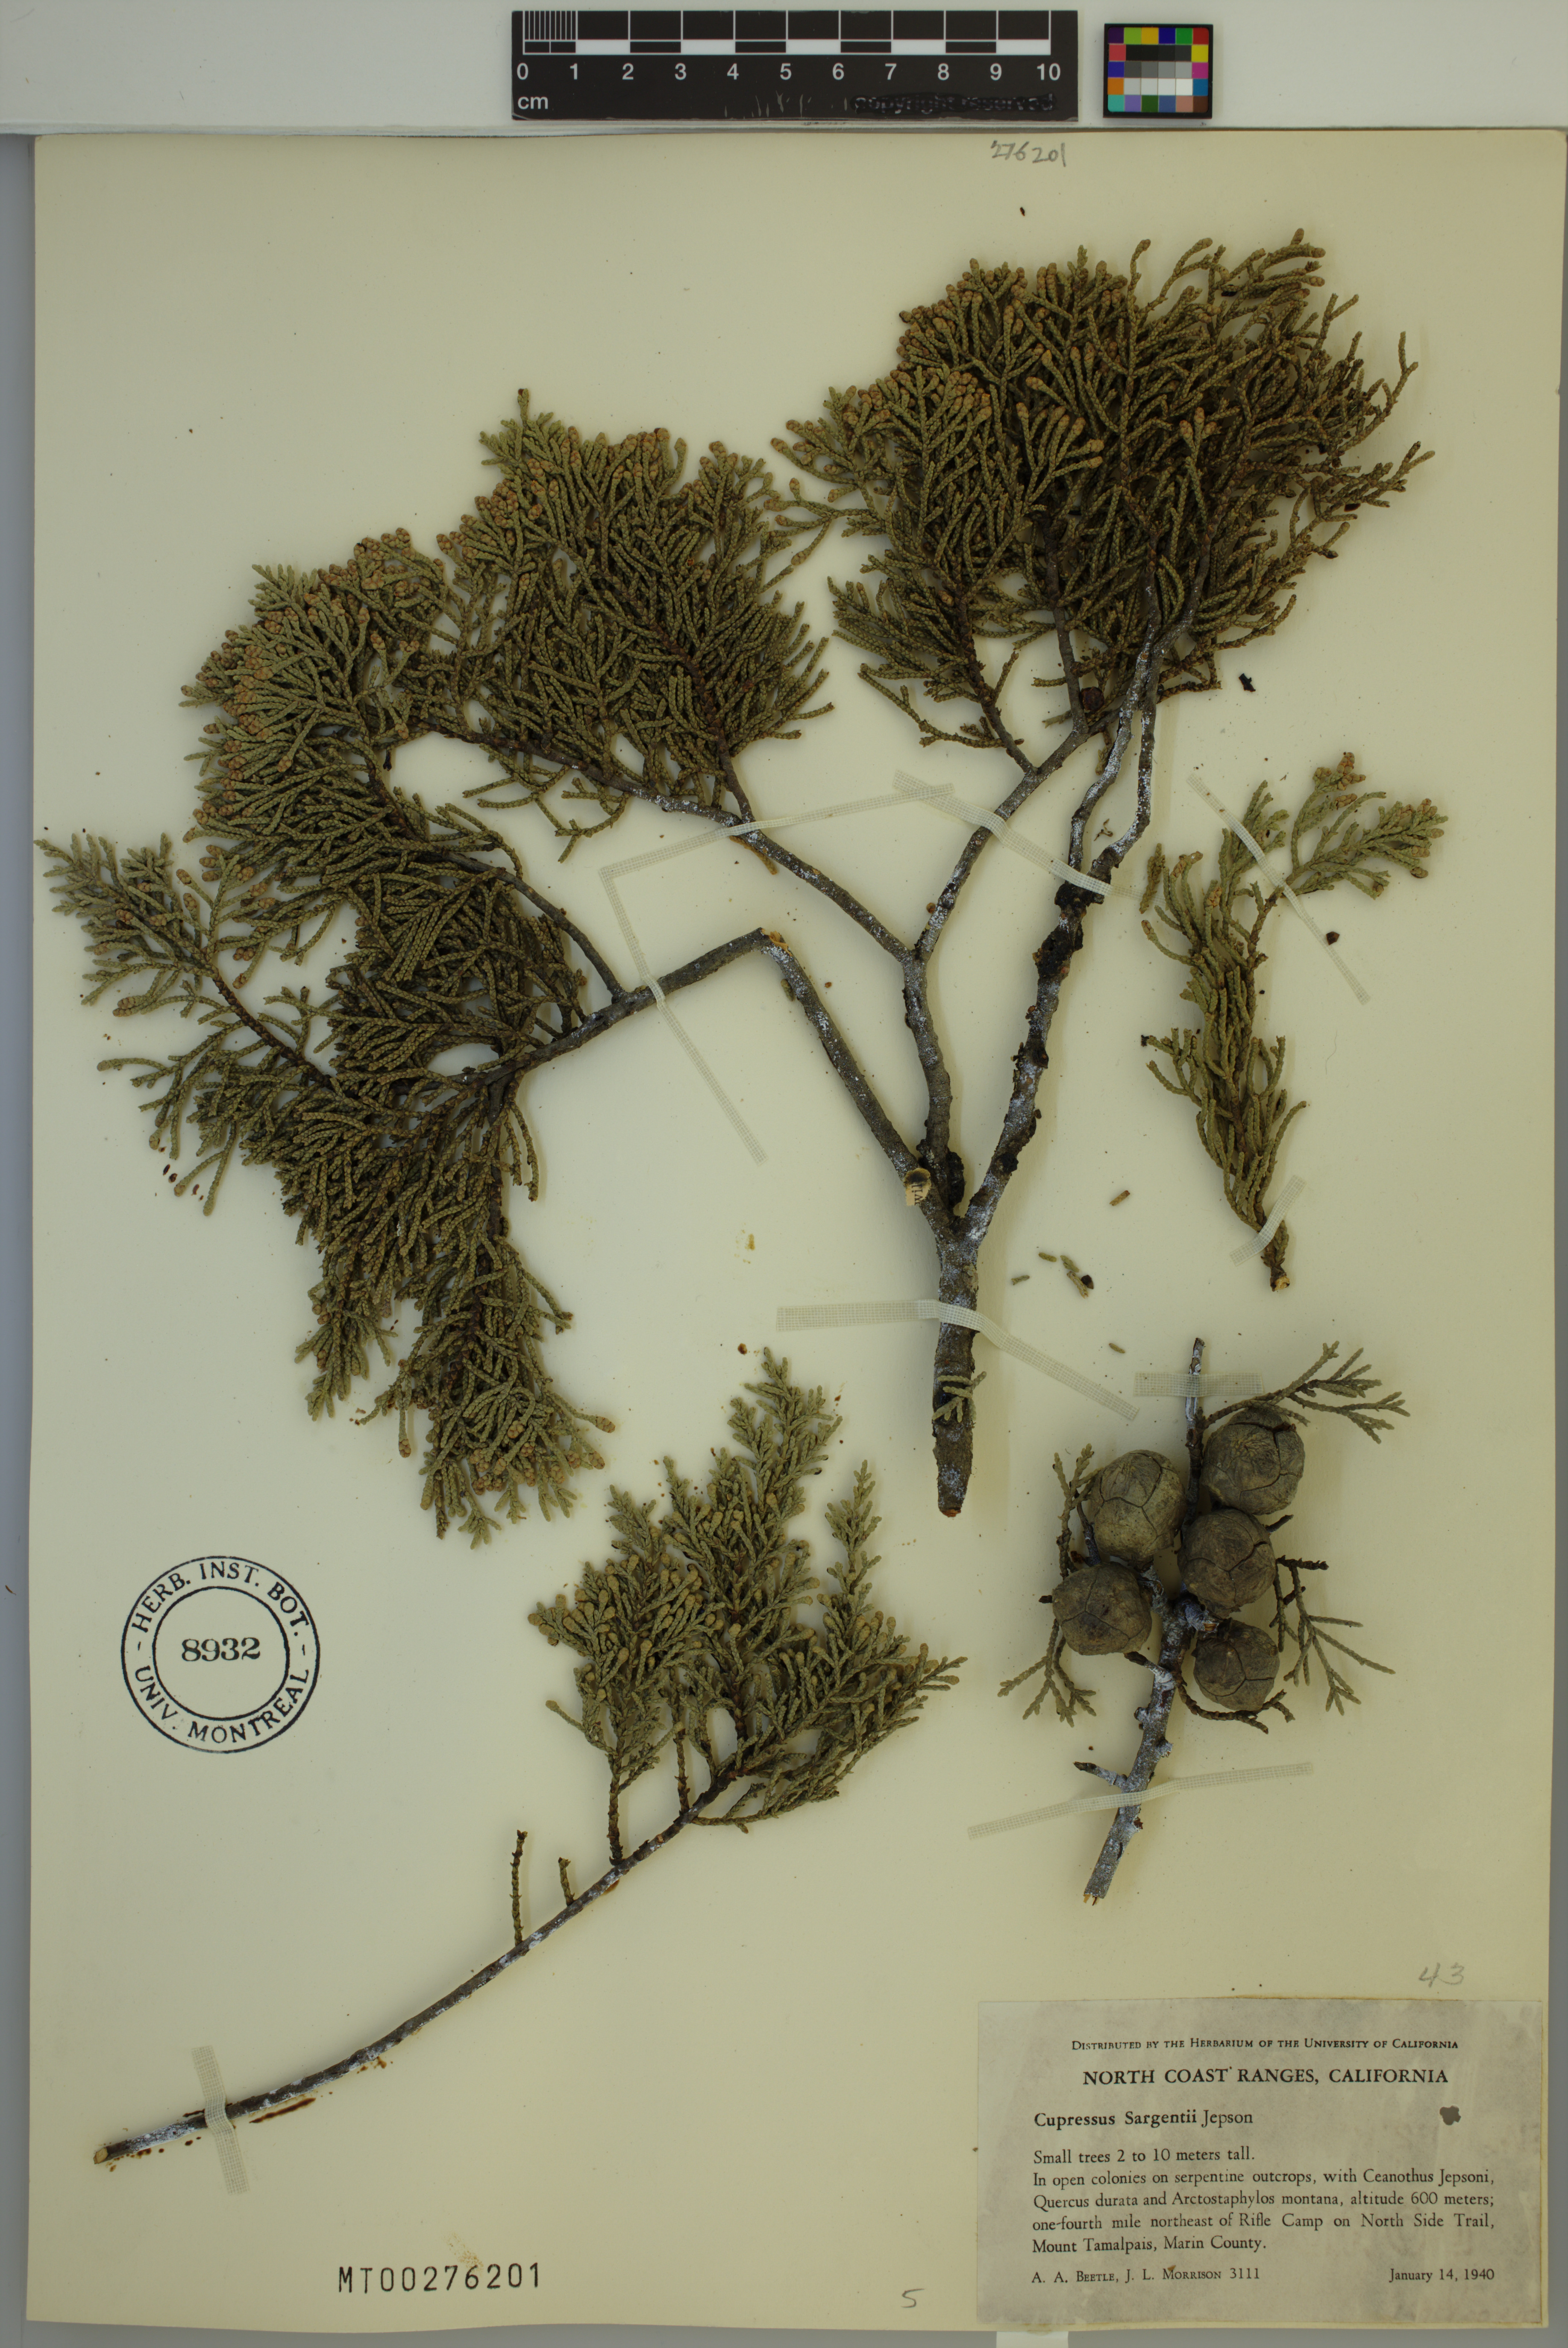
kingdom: Plantae
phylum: Tracheophyta
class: Pinopsida
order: Pinales
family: Cupressaceae
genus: Cupressus
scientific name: Cupressus sargentii
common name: Sargent cypress
